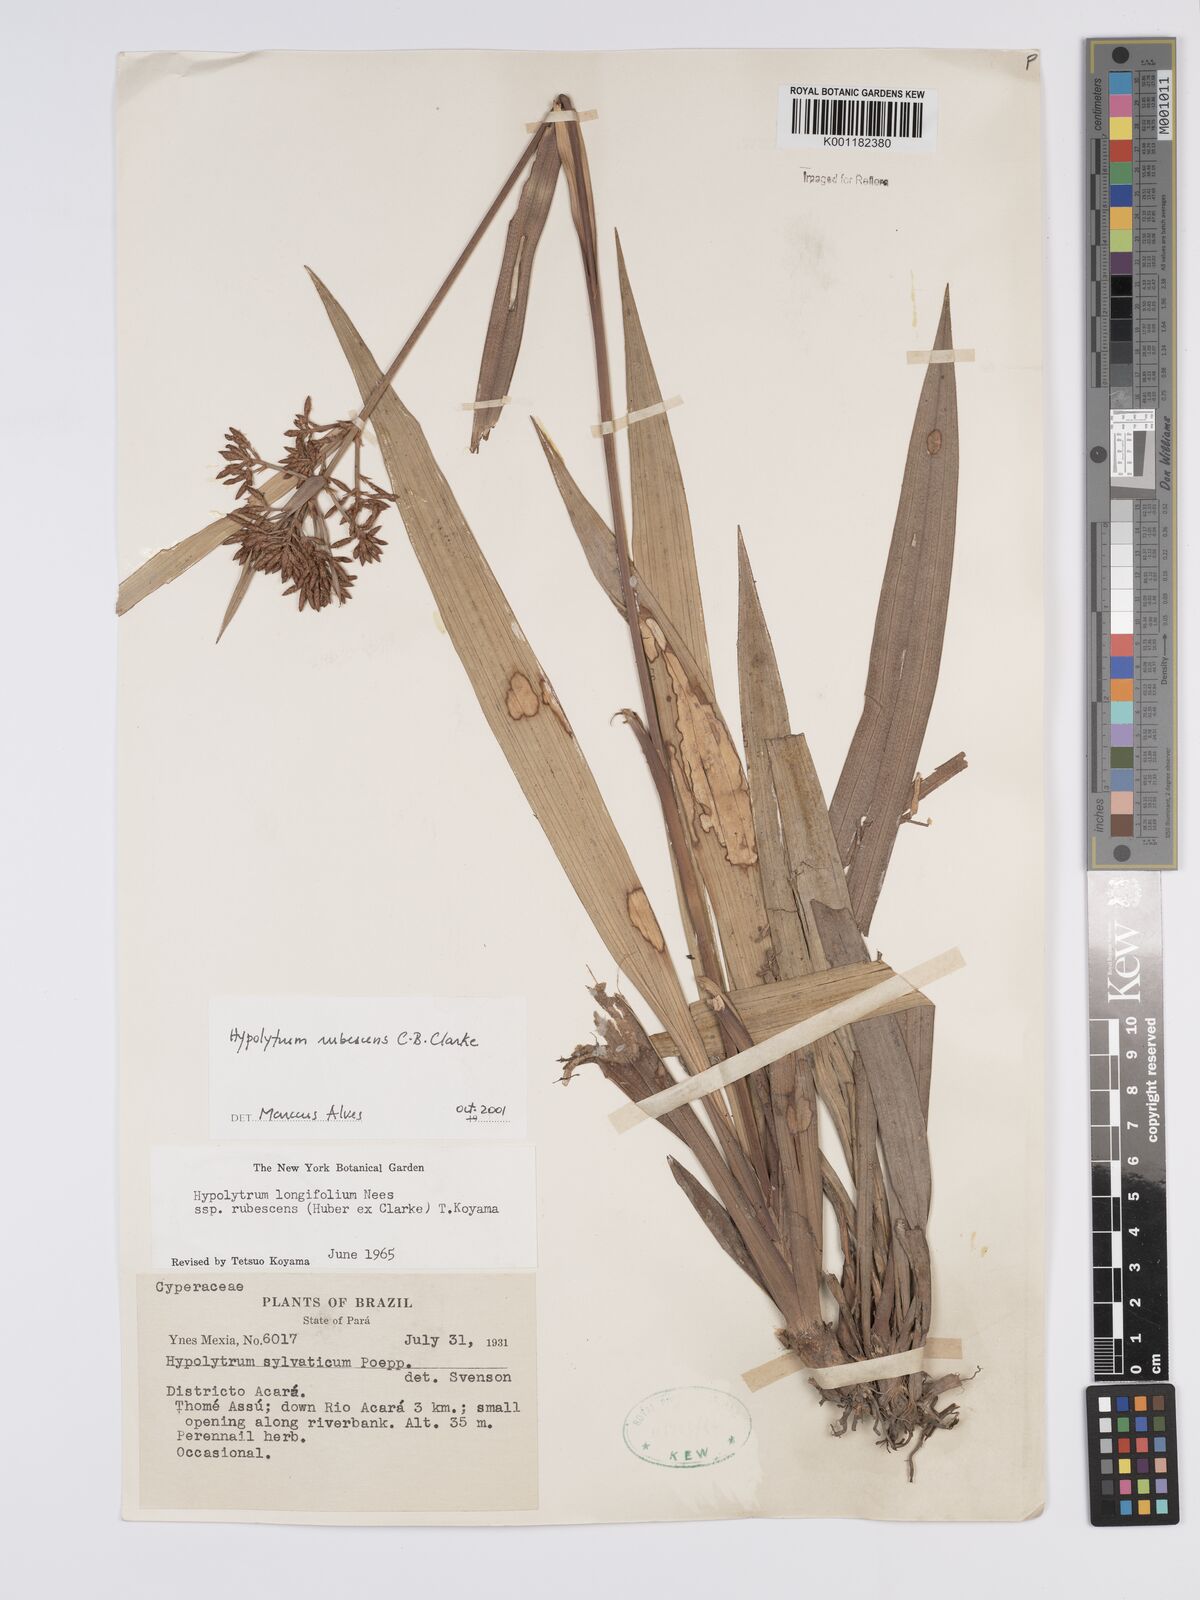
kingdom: Plantae
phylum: Tracheophyta
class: Liliopsida
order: Poales
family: Cyperaceae
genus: Hypolytrum
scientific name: Hypolytrum longifolium
